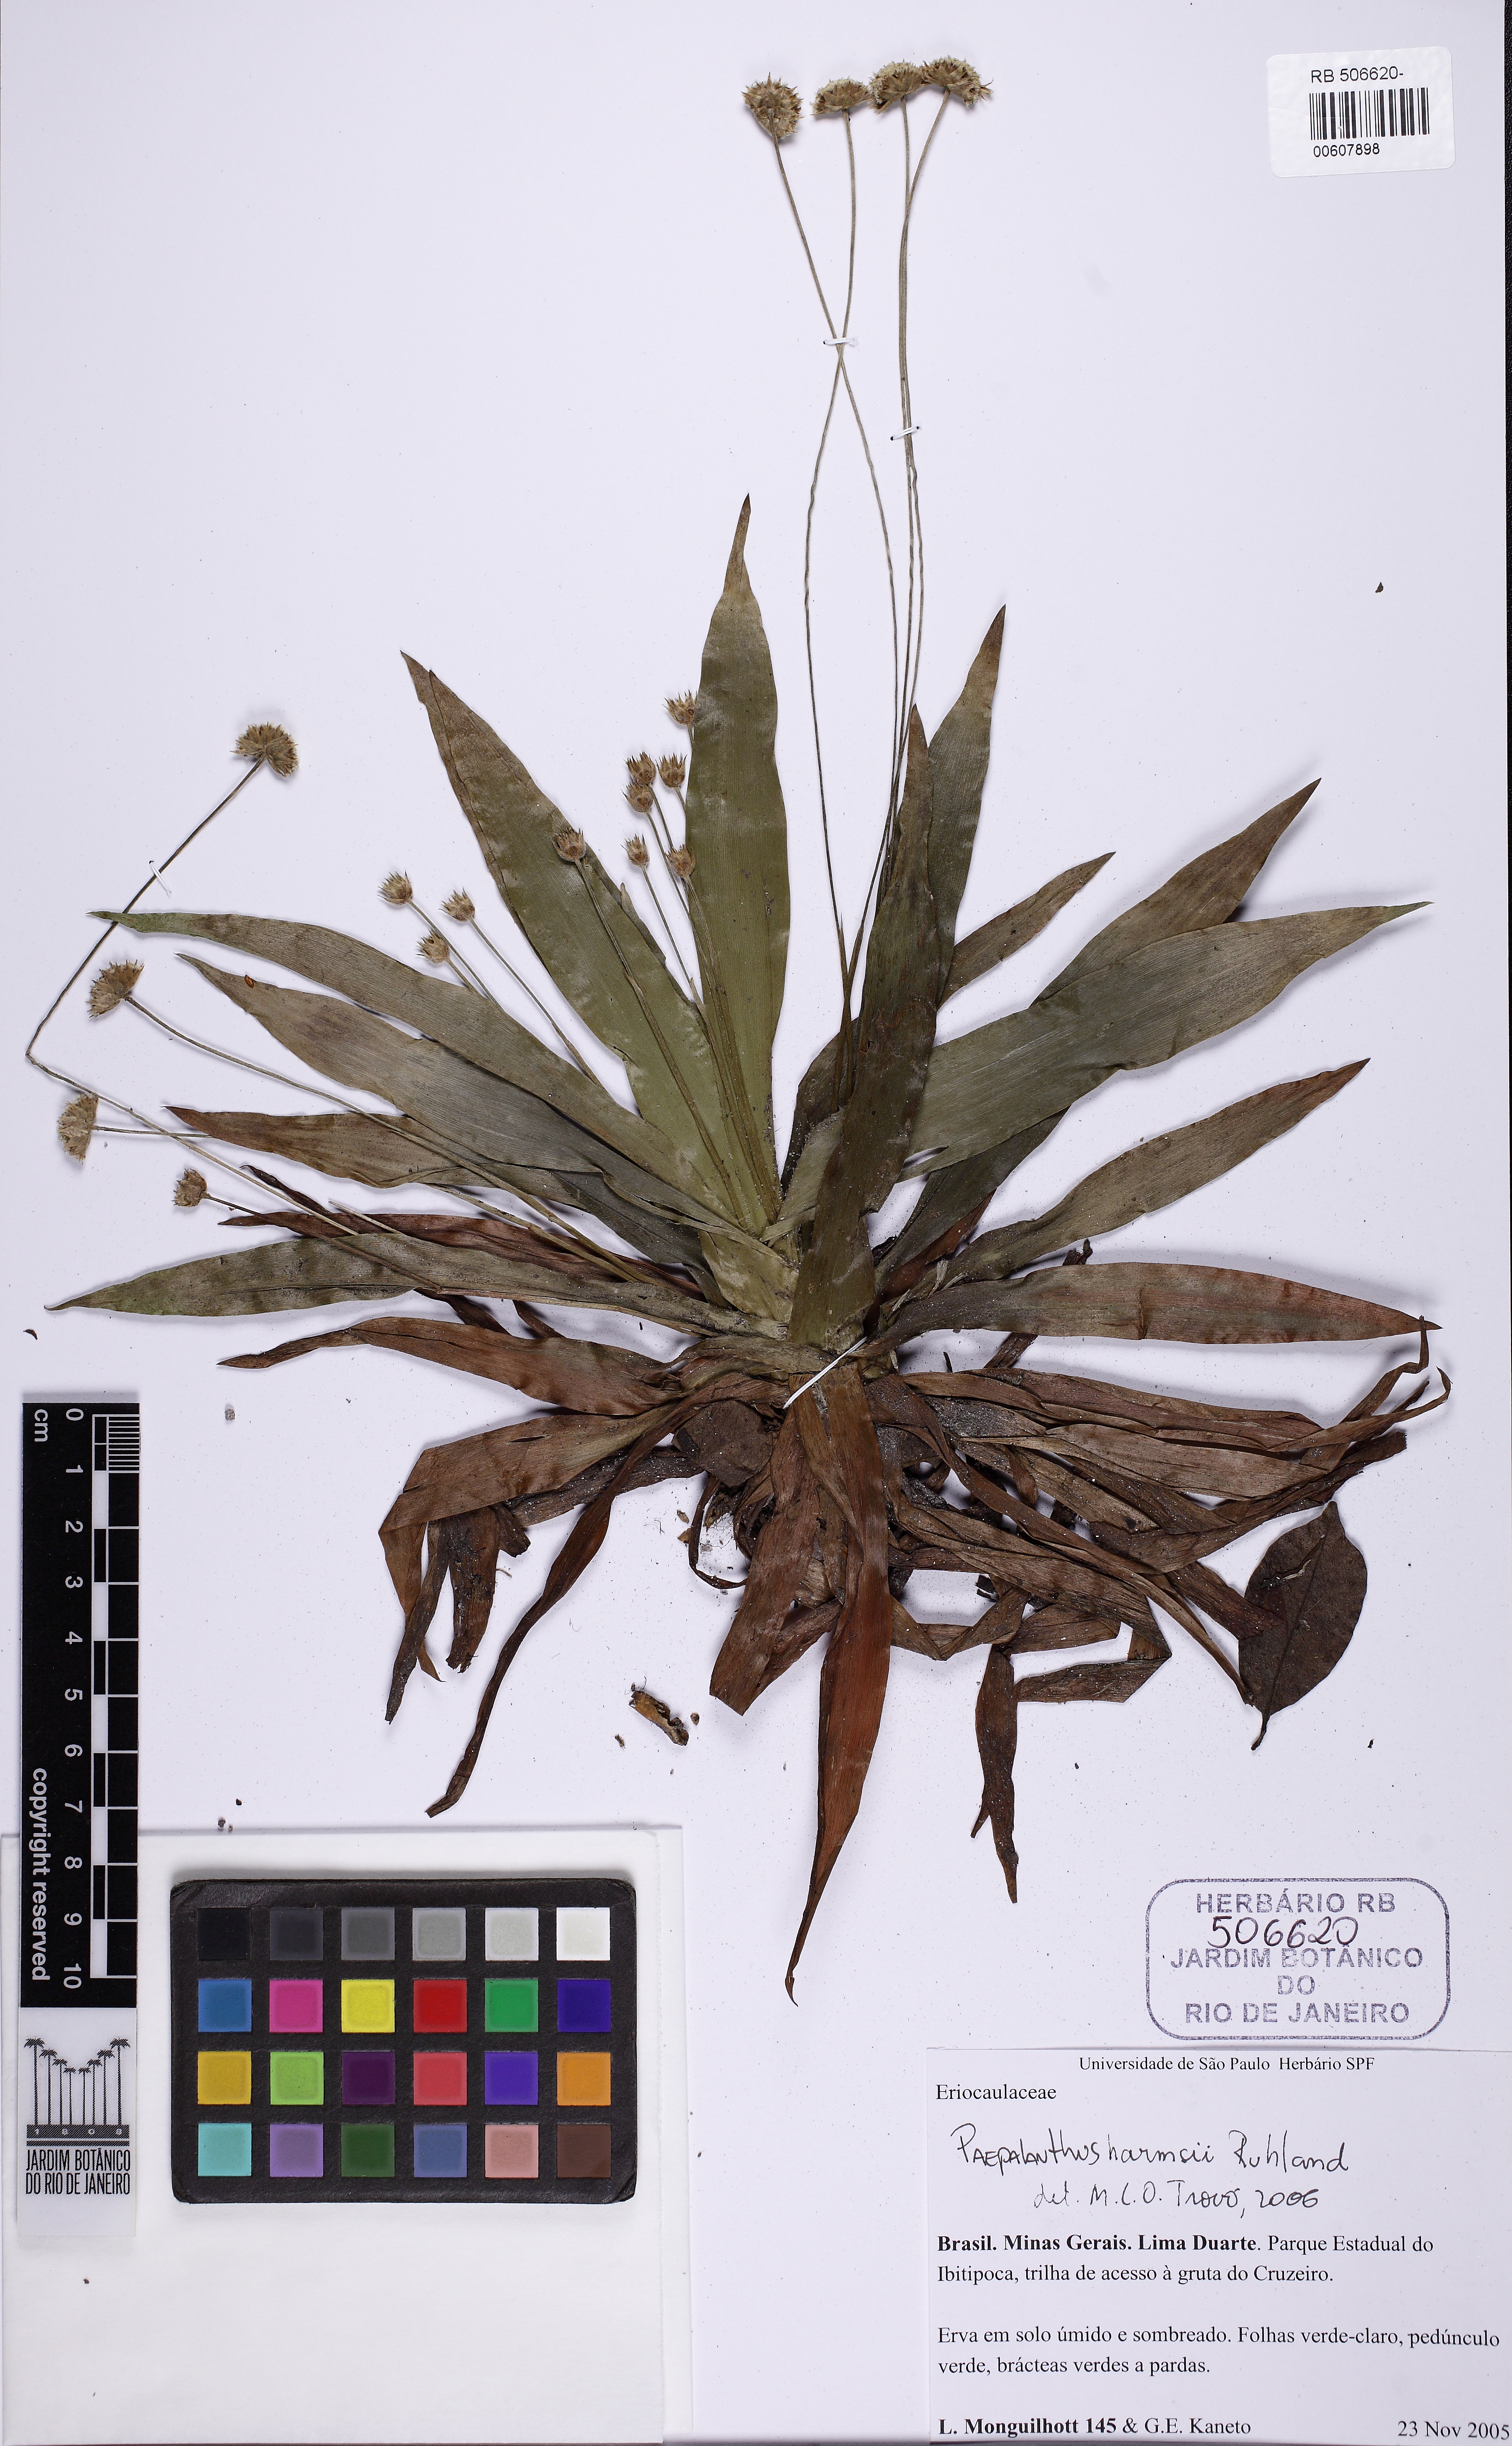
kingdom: Plantae
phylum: Tracheophyta
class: Liliopsida
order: Poales
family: Eriocaulaceae
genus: Paepalanthus
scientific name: Paepalanthus harmsii
